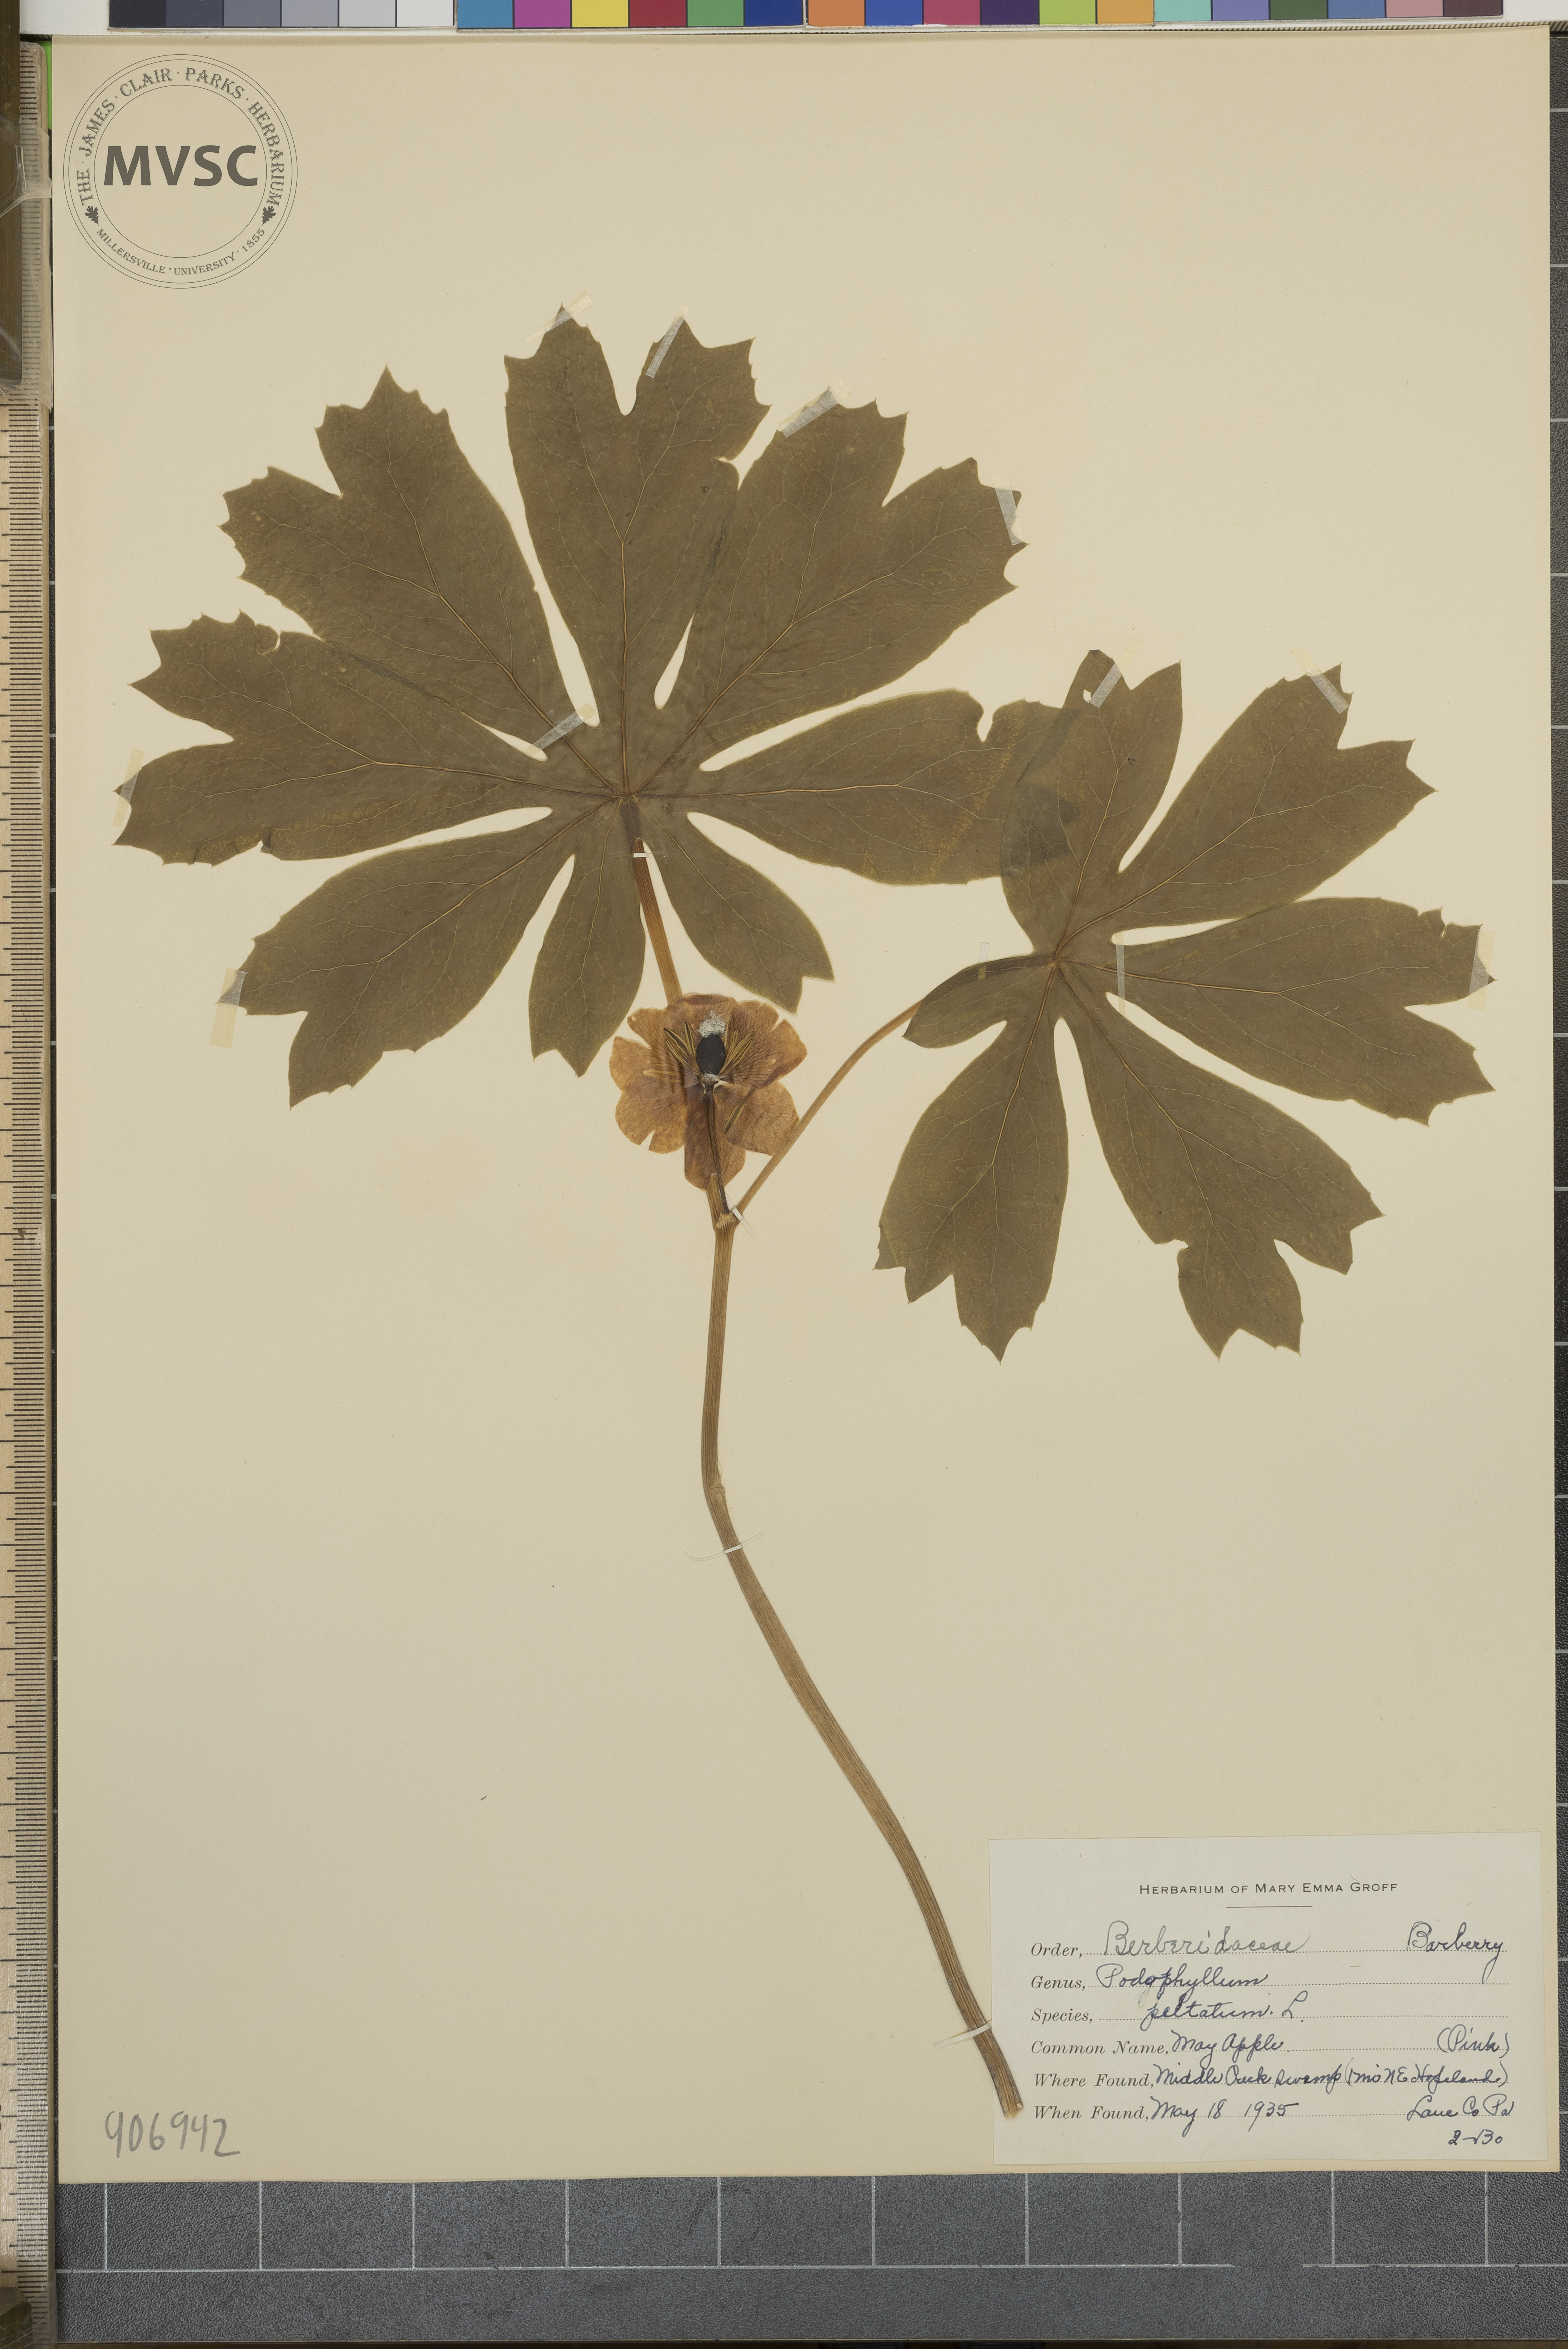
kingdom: Plantae
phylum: Tracheophyta
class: Magnoliopsida
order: Ranunculales
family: Berberidaceae
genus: Podophyllum
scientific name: Podophyllum peltatum
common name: May-apple
